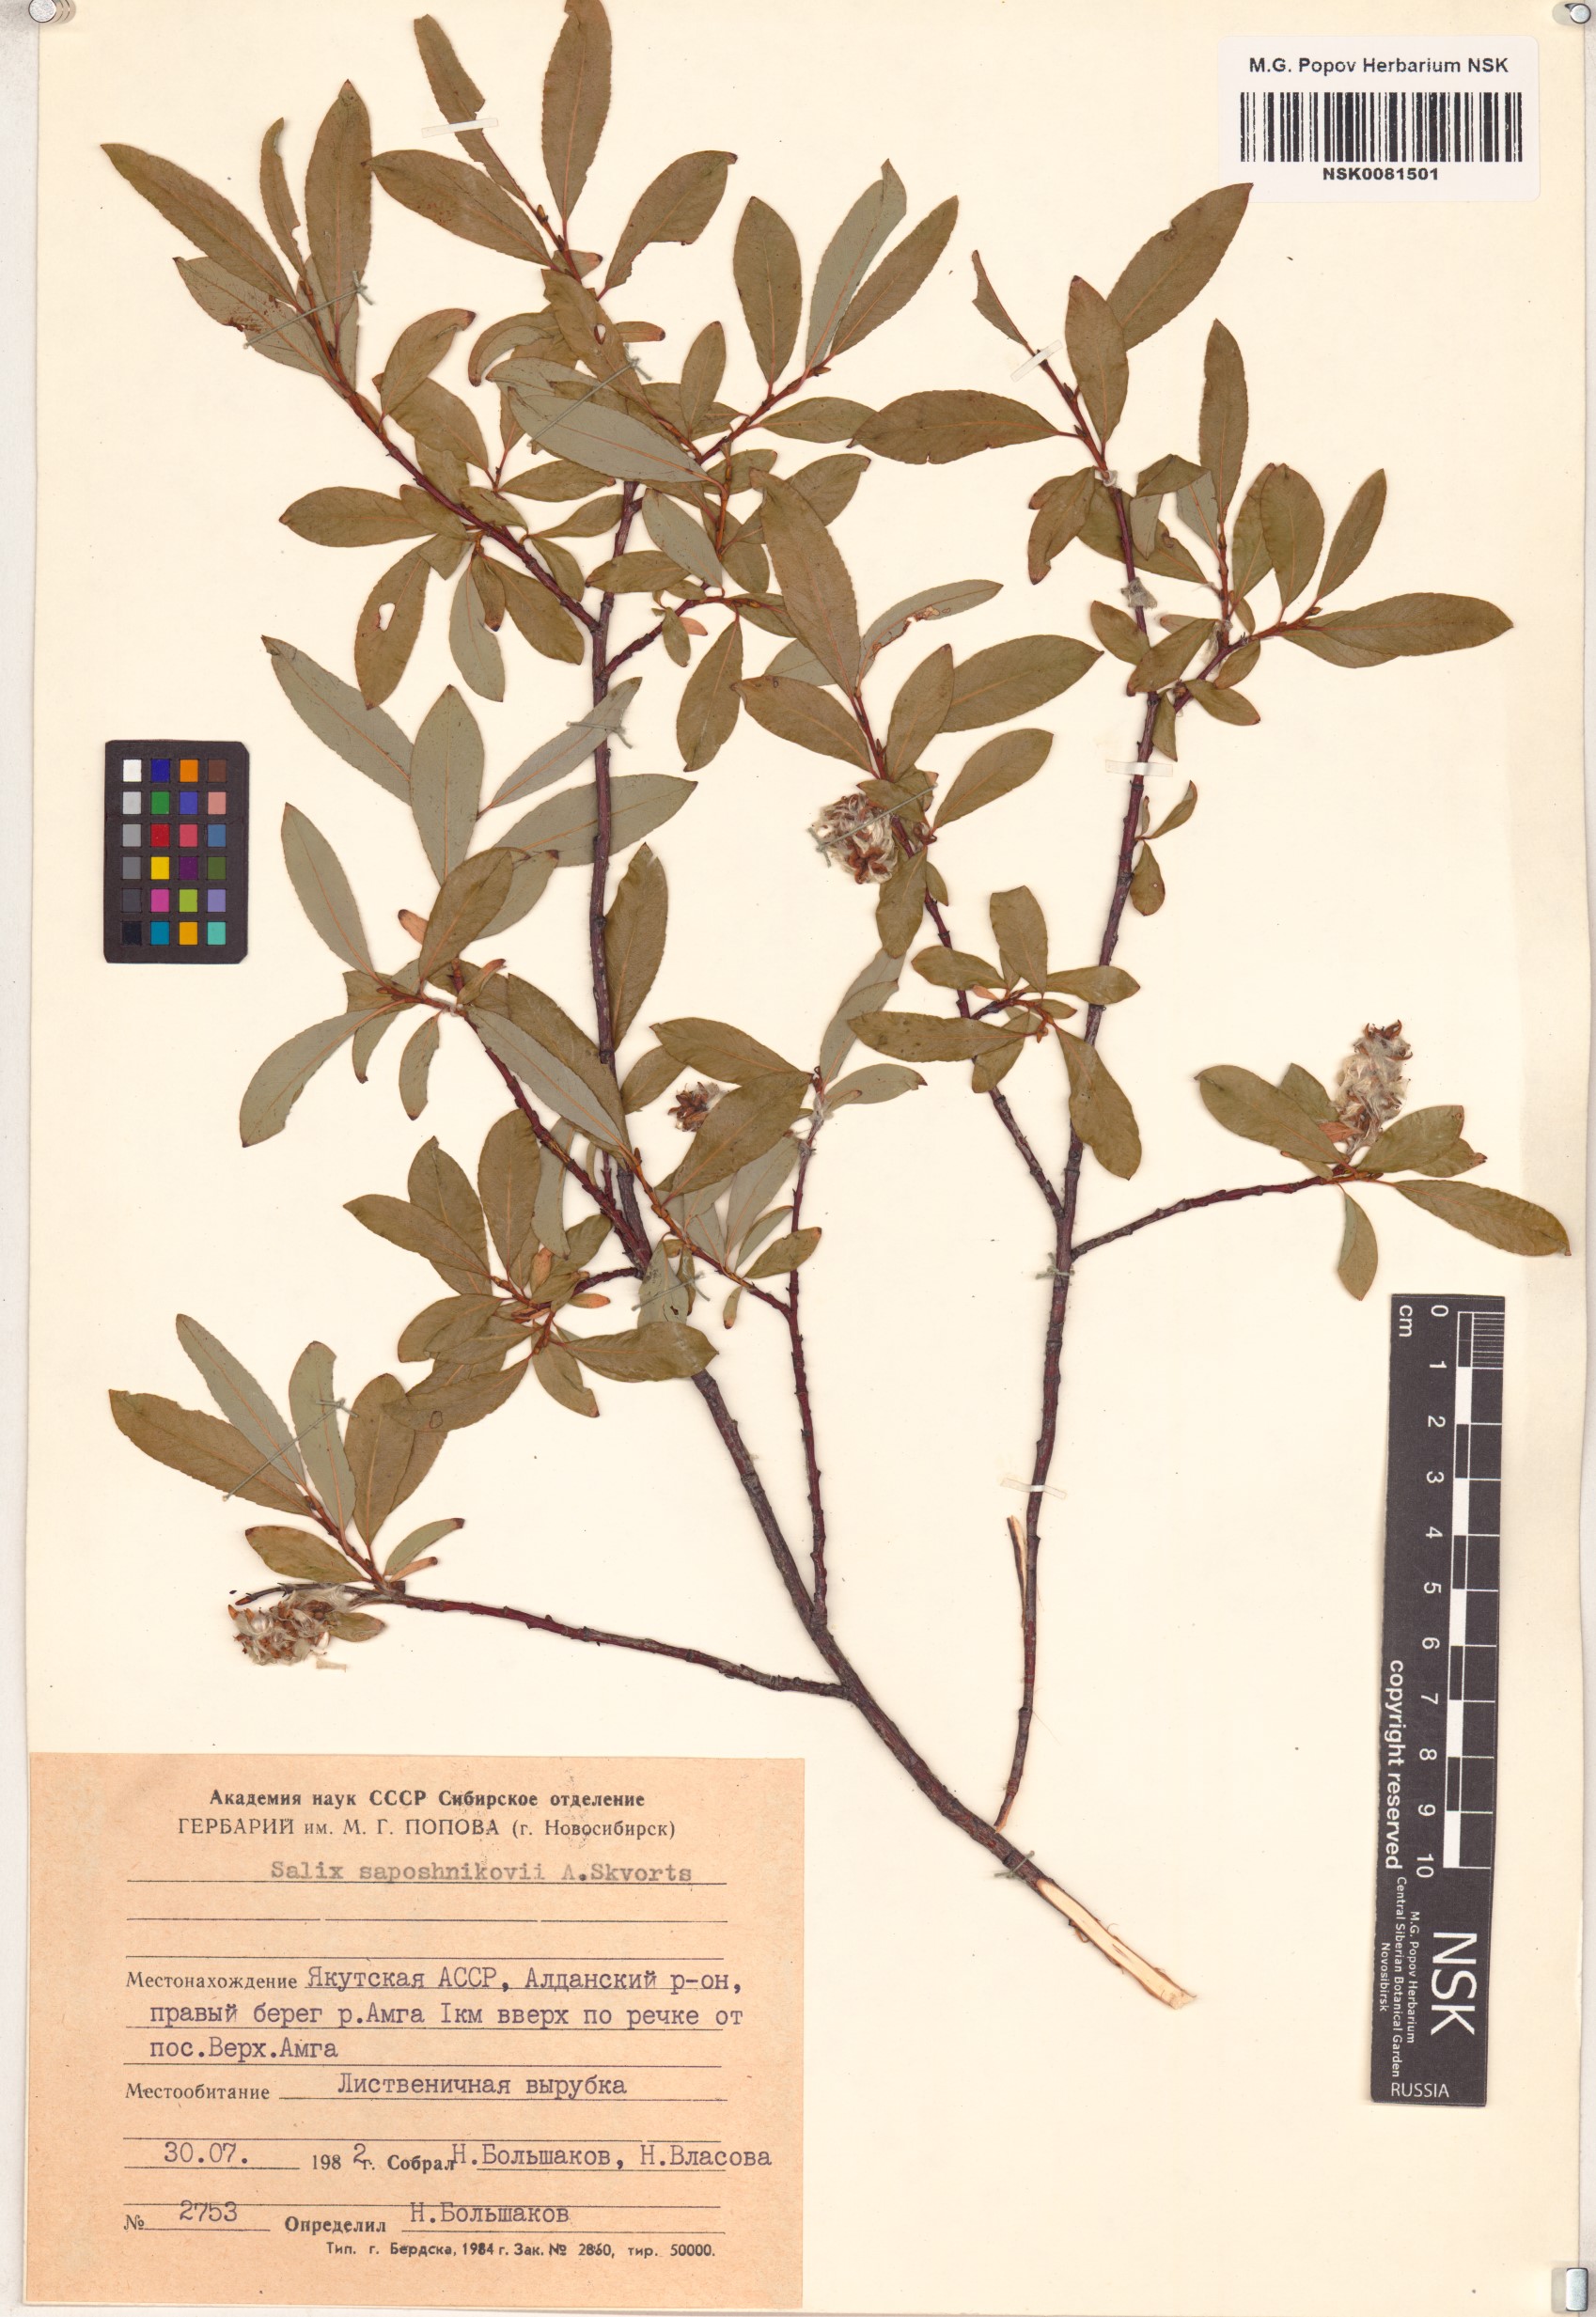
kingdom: Plantae
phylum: Tracheophyta
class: Magnoliopsida
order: Malpighiales
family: Salicaceae
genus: Salix
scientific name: Salix saposhnikovii
